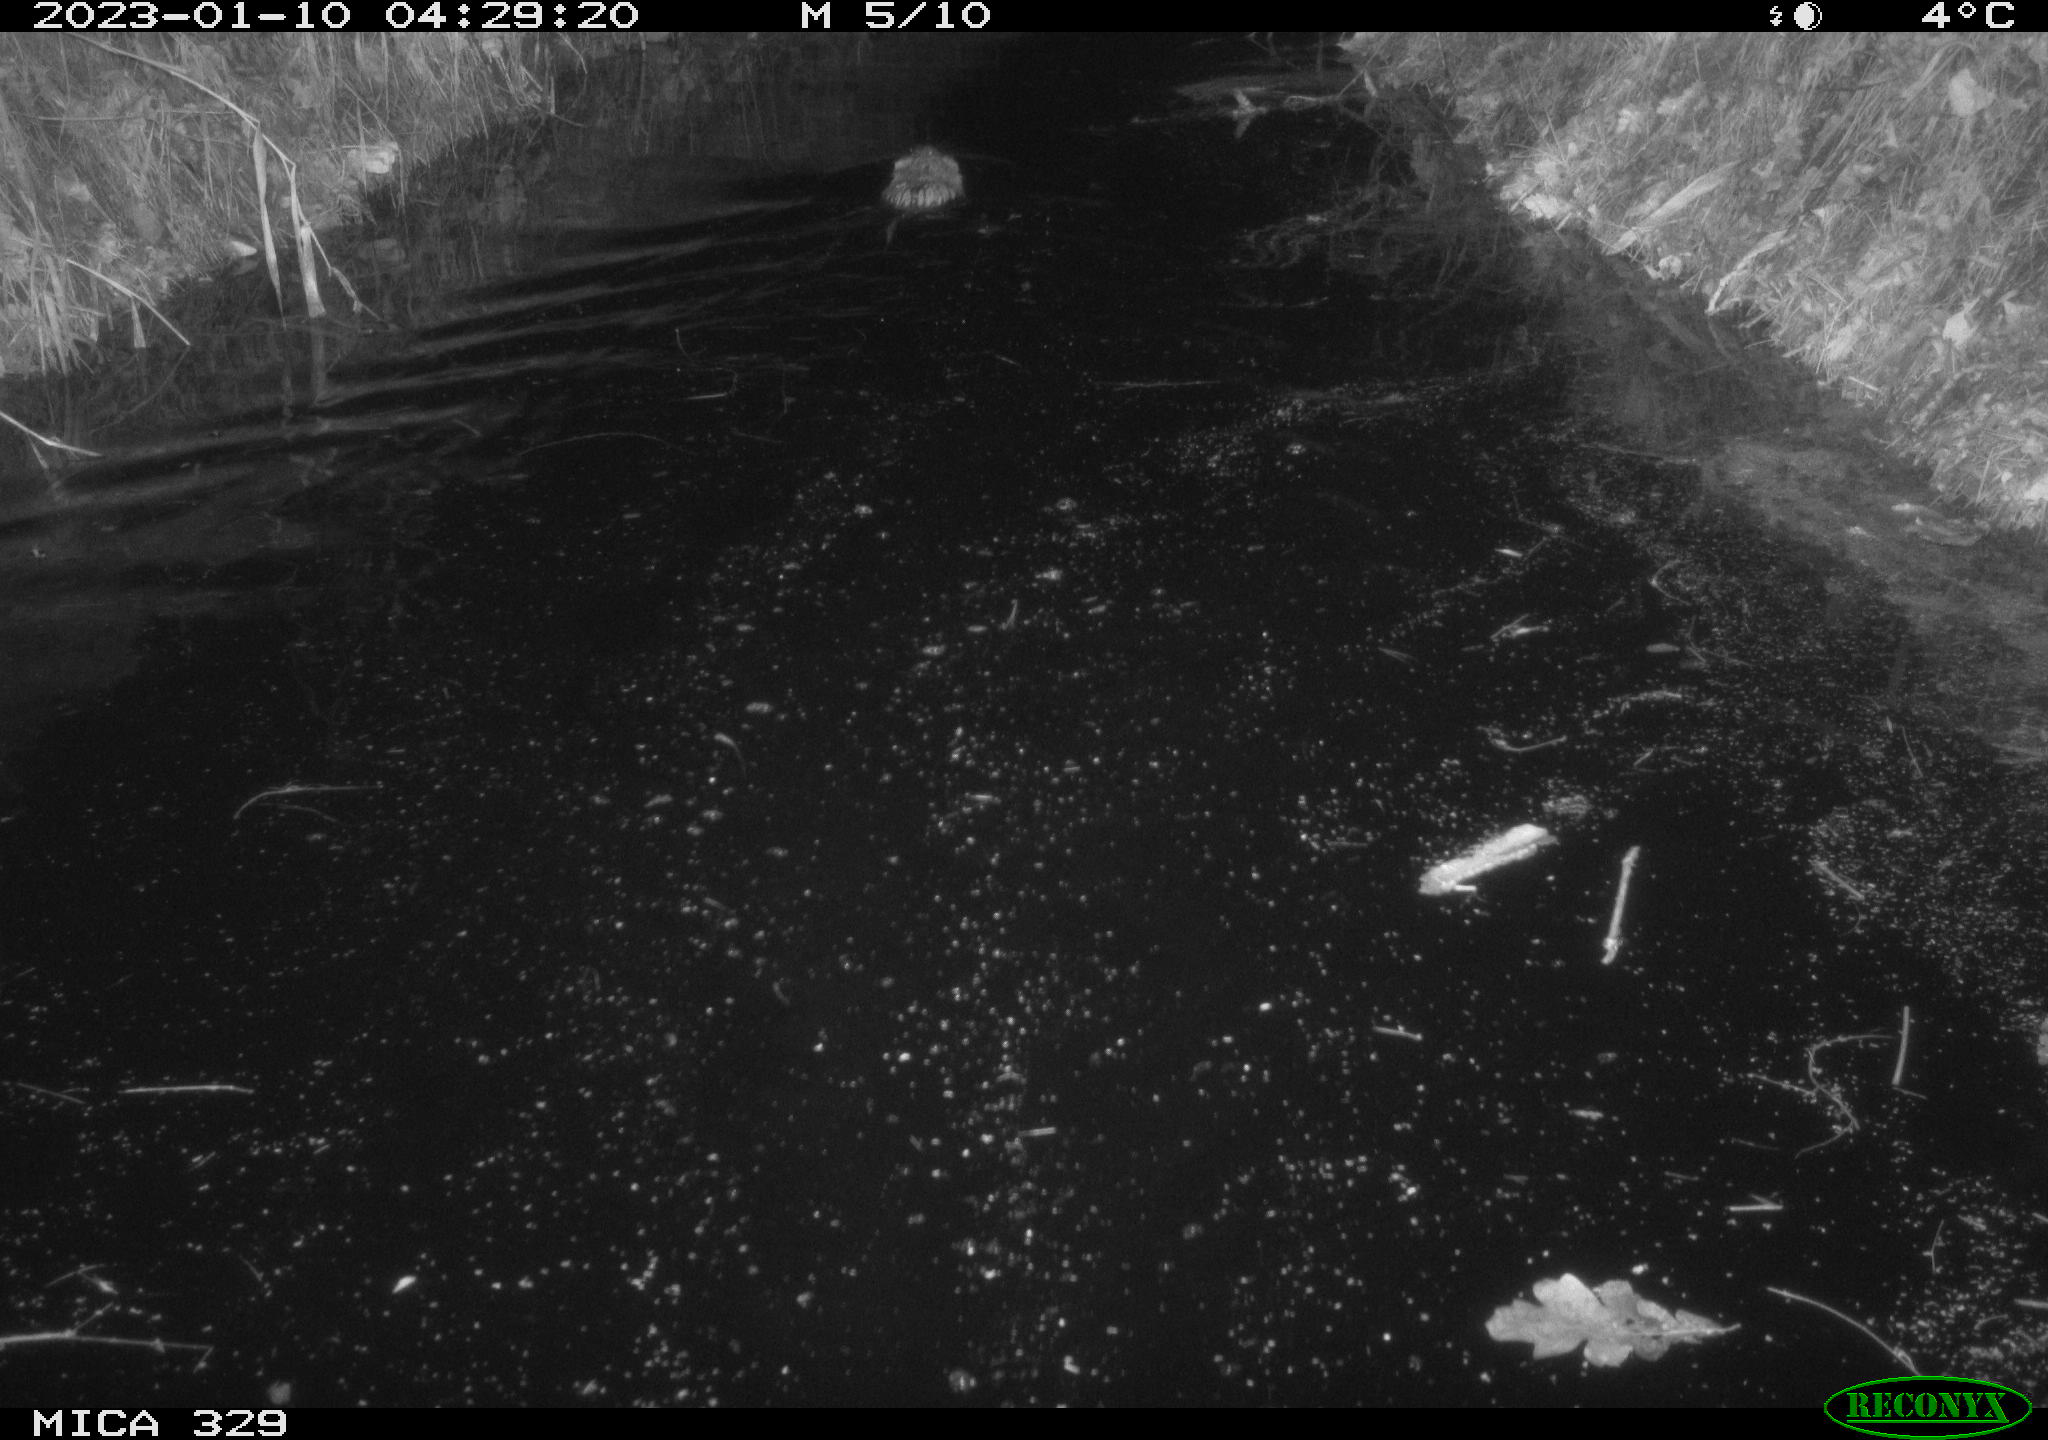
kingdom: Animalia
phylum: Chordata
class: Mammalia
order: Rodentia
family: Cricetidae
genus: Ondatra
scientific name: Ondatra zibethicus
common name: Muskrat
